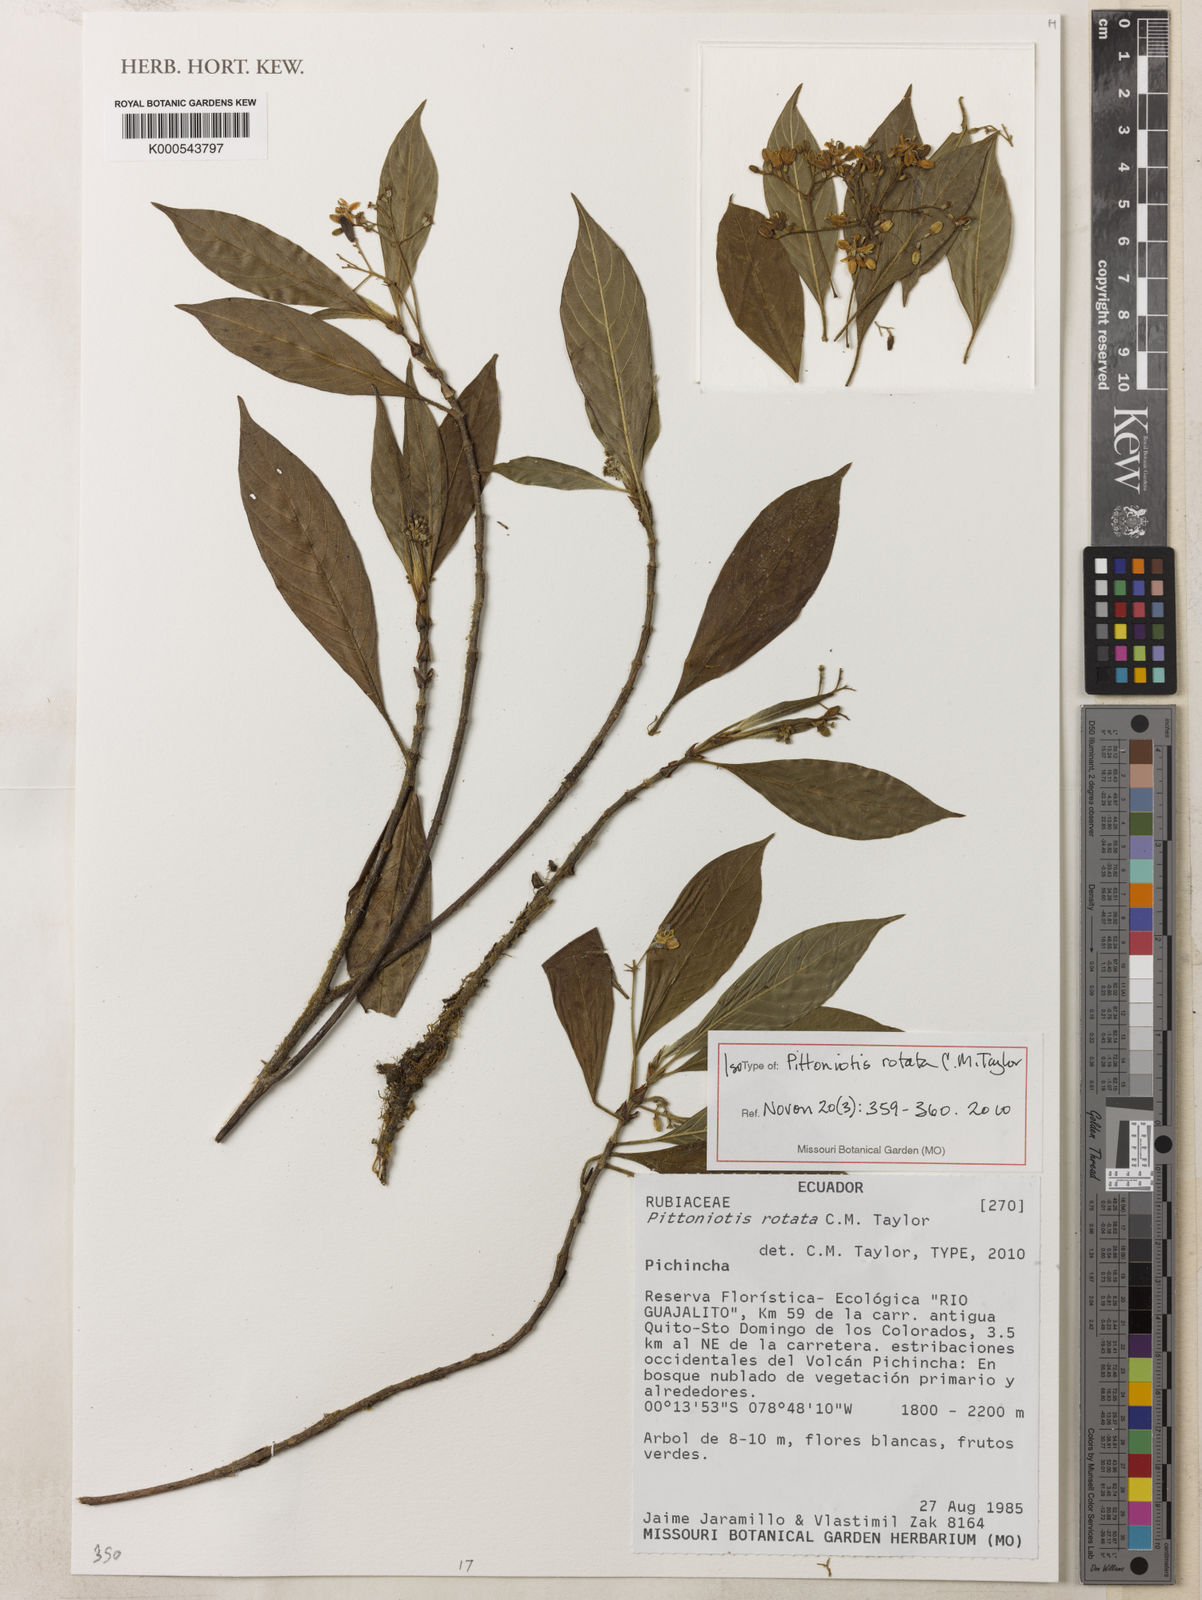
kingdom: Plantae
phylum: Tracheophyta
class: Magnoliopsida
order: Gentianales
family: Rubiaceae
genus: Pittoniotis
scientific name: Pittoniotis rotata
